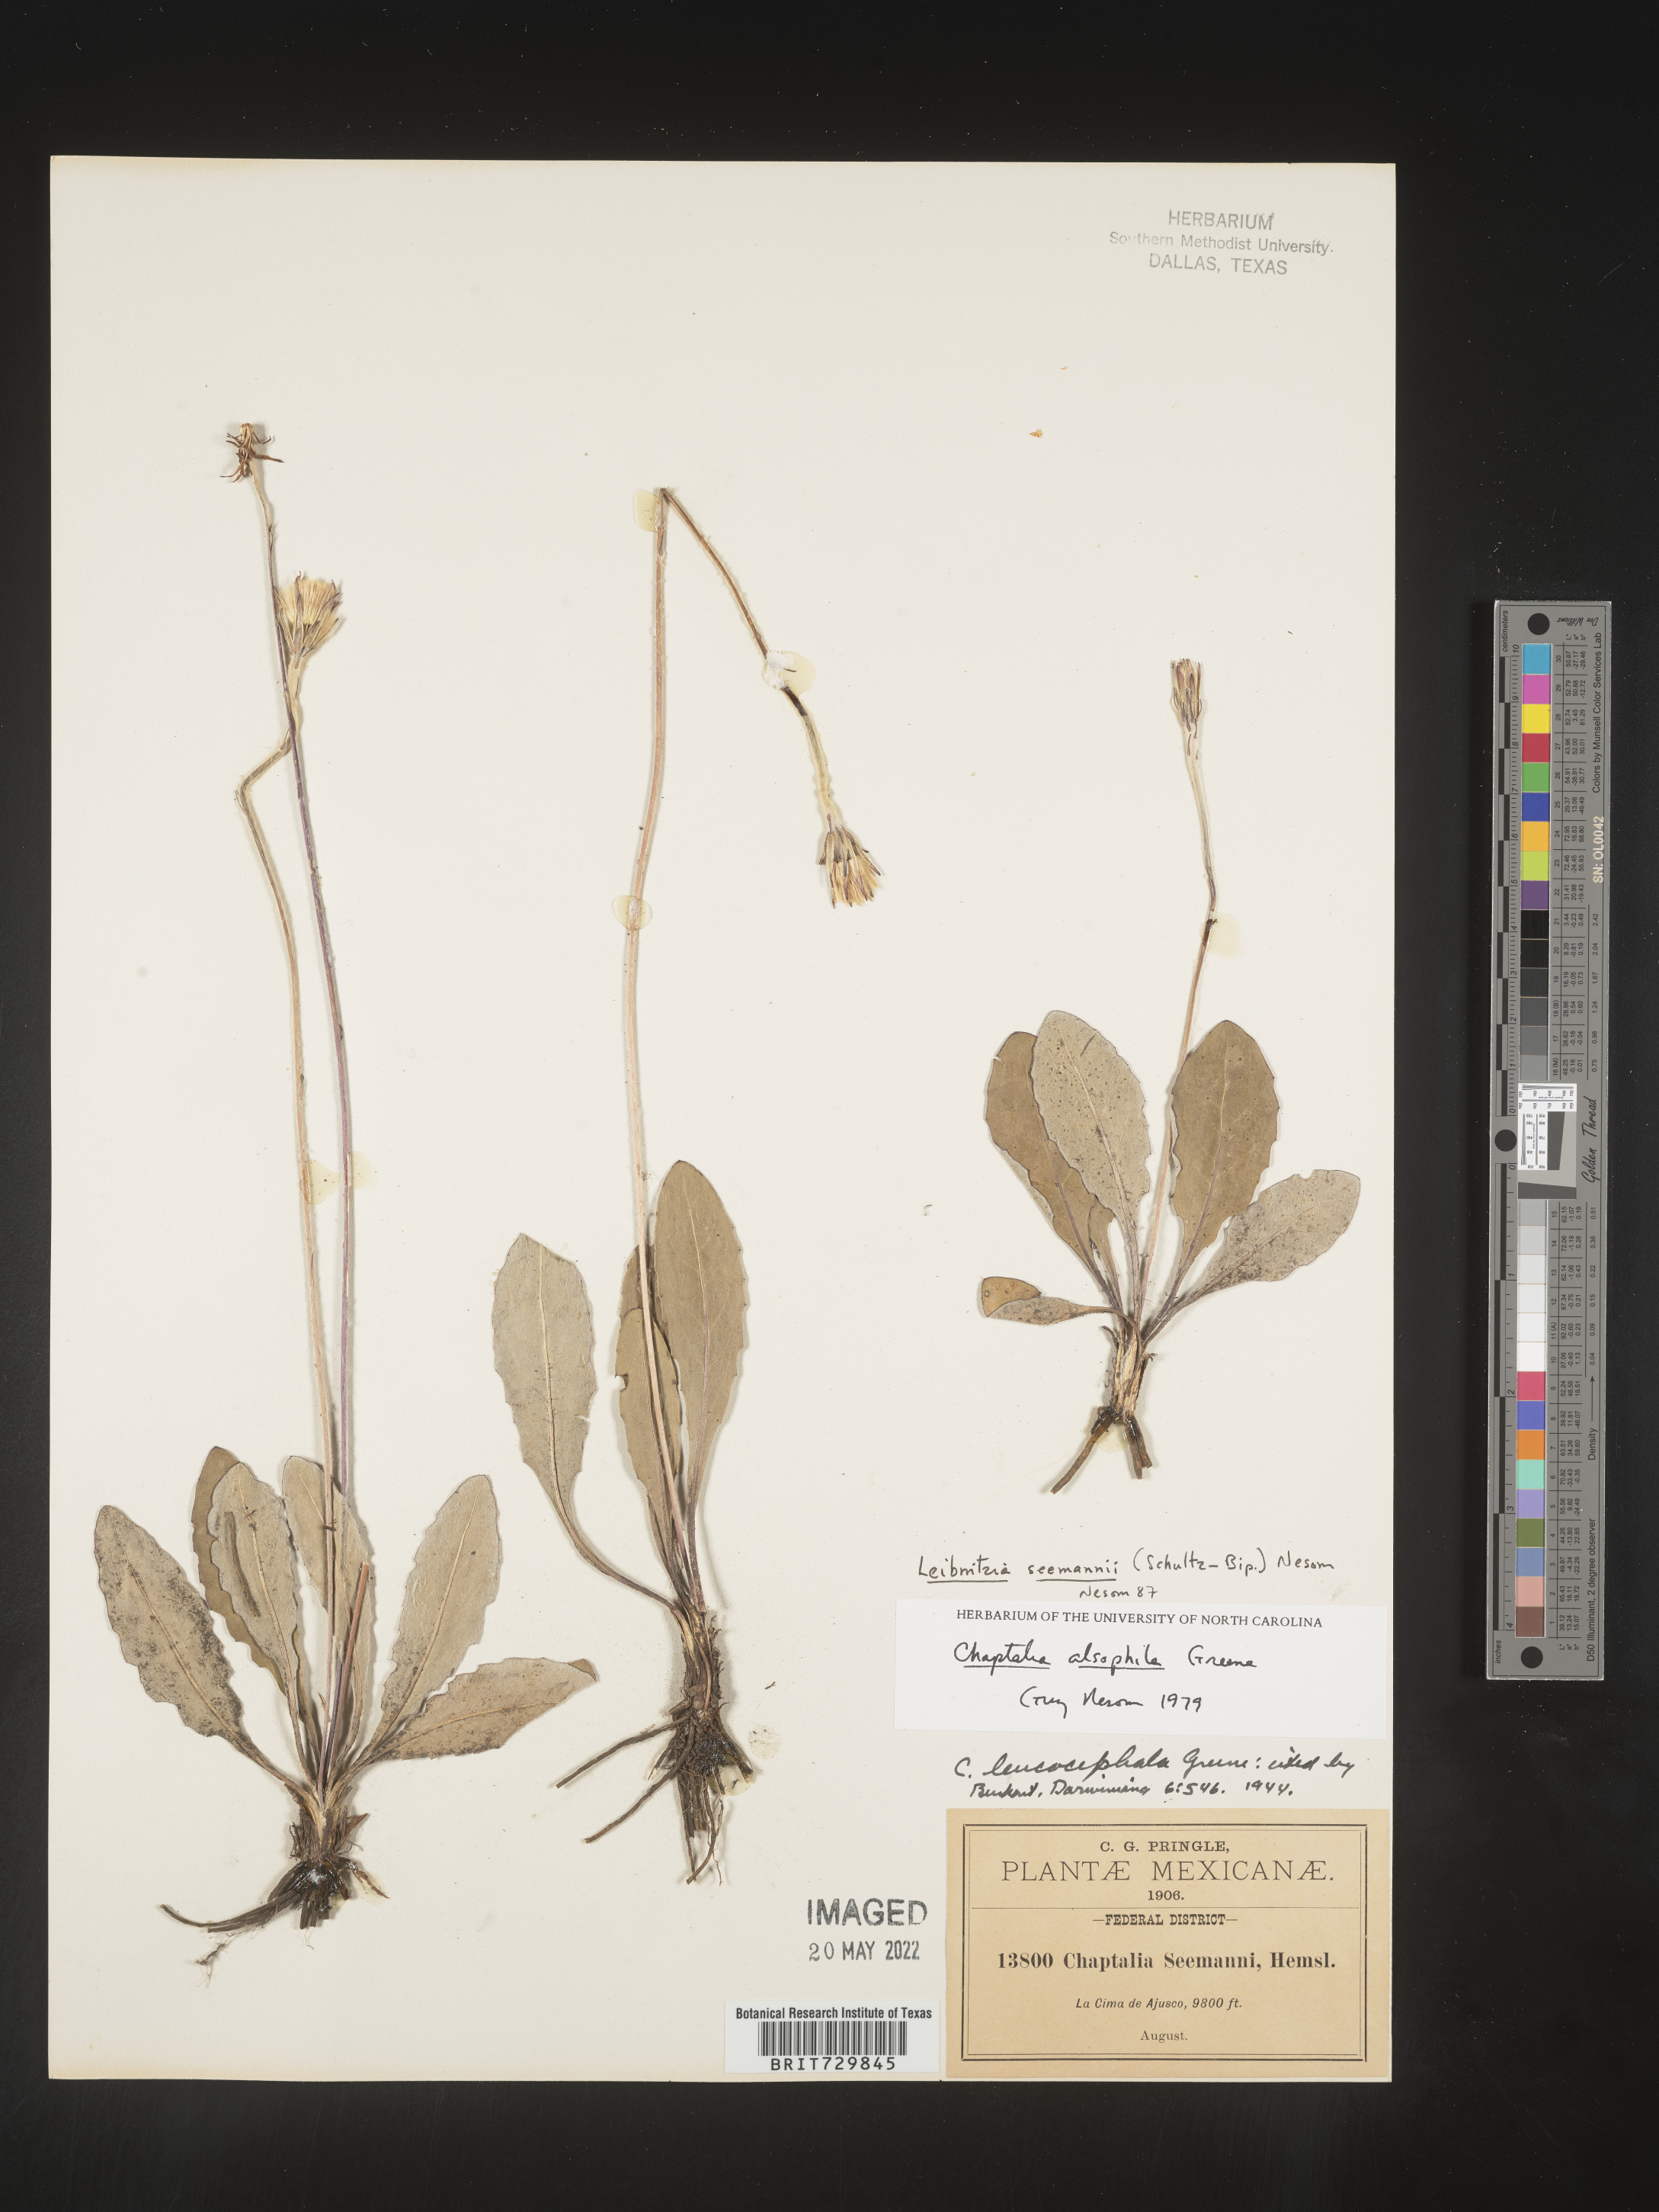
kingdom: Plantae
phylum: Tracheophyta
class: Magnoliopsida
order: Asterales
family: Asteraceae
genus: Leibnitzia
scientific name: Leibnitzia
